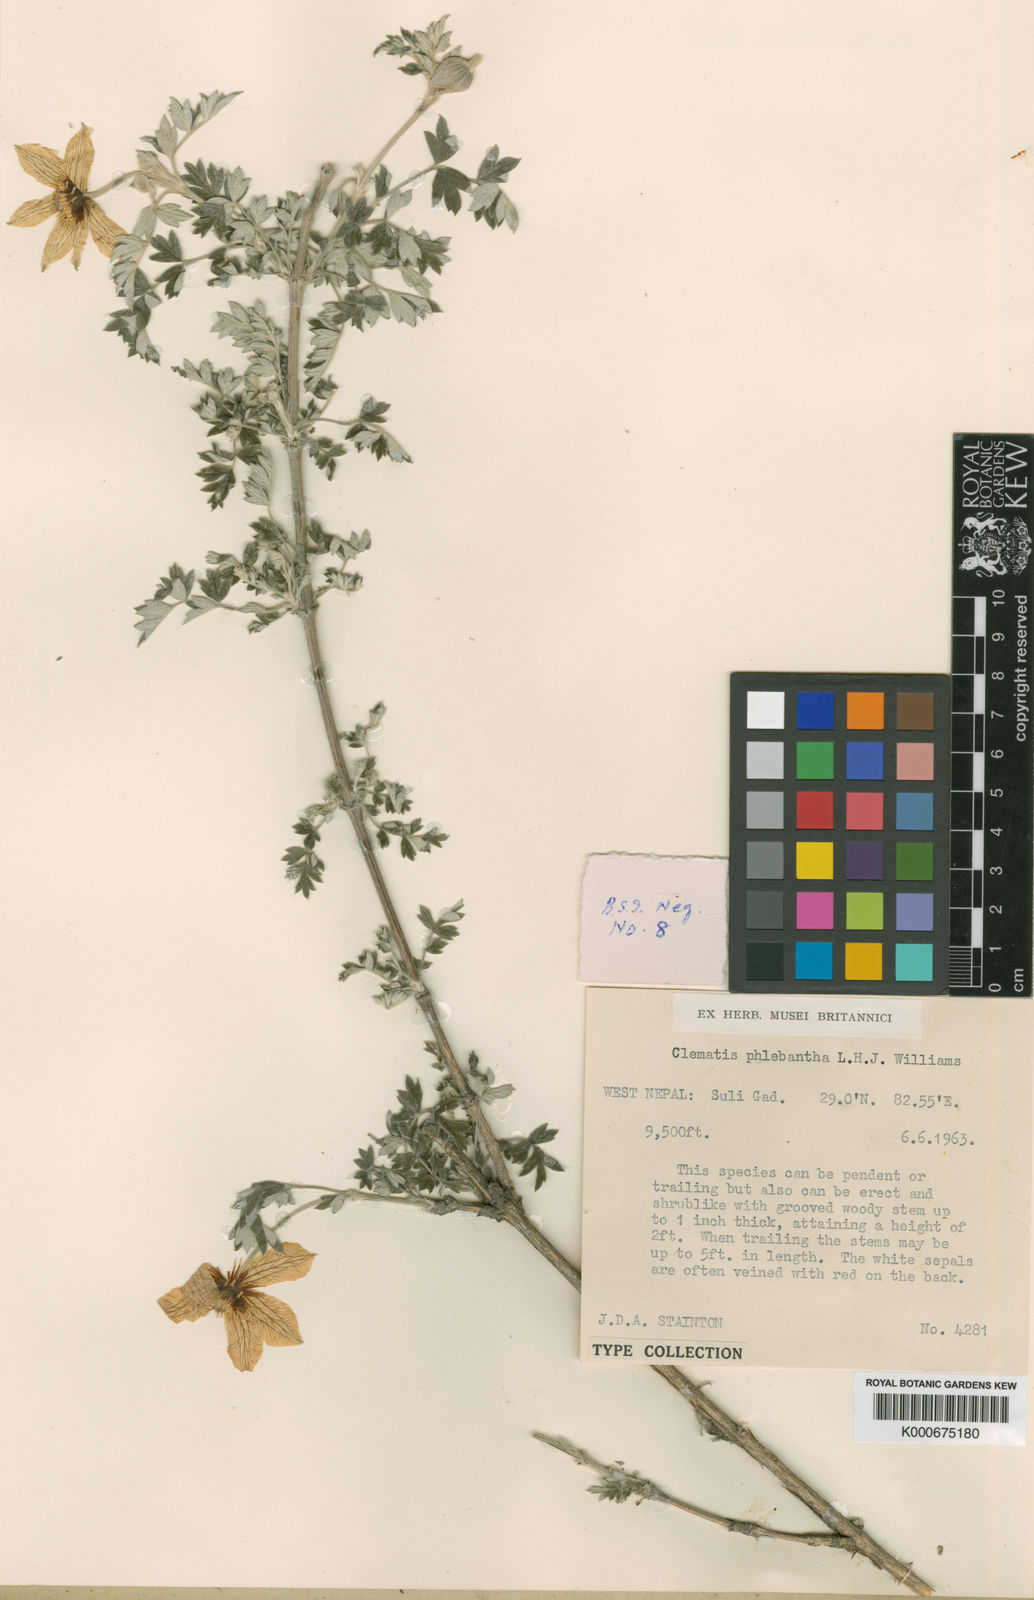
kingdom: Plantae
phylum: Tracheophyta
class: Magnoliopsida
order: Ranunculales
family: Ranunculaceae
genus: Clematis
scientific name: Clematis phlebantha
